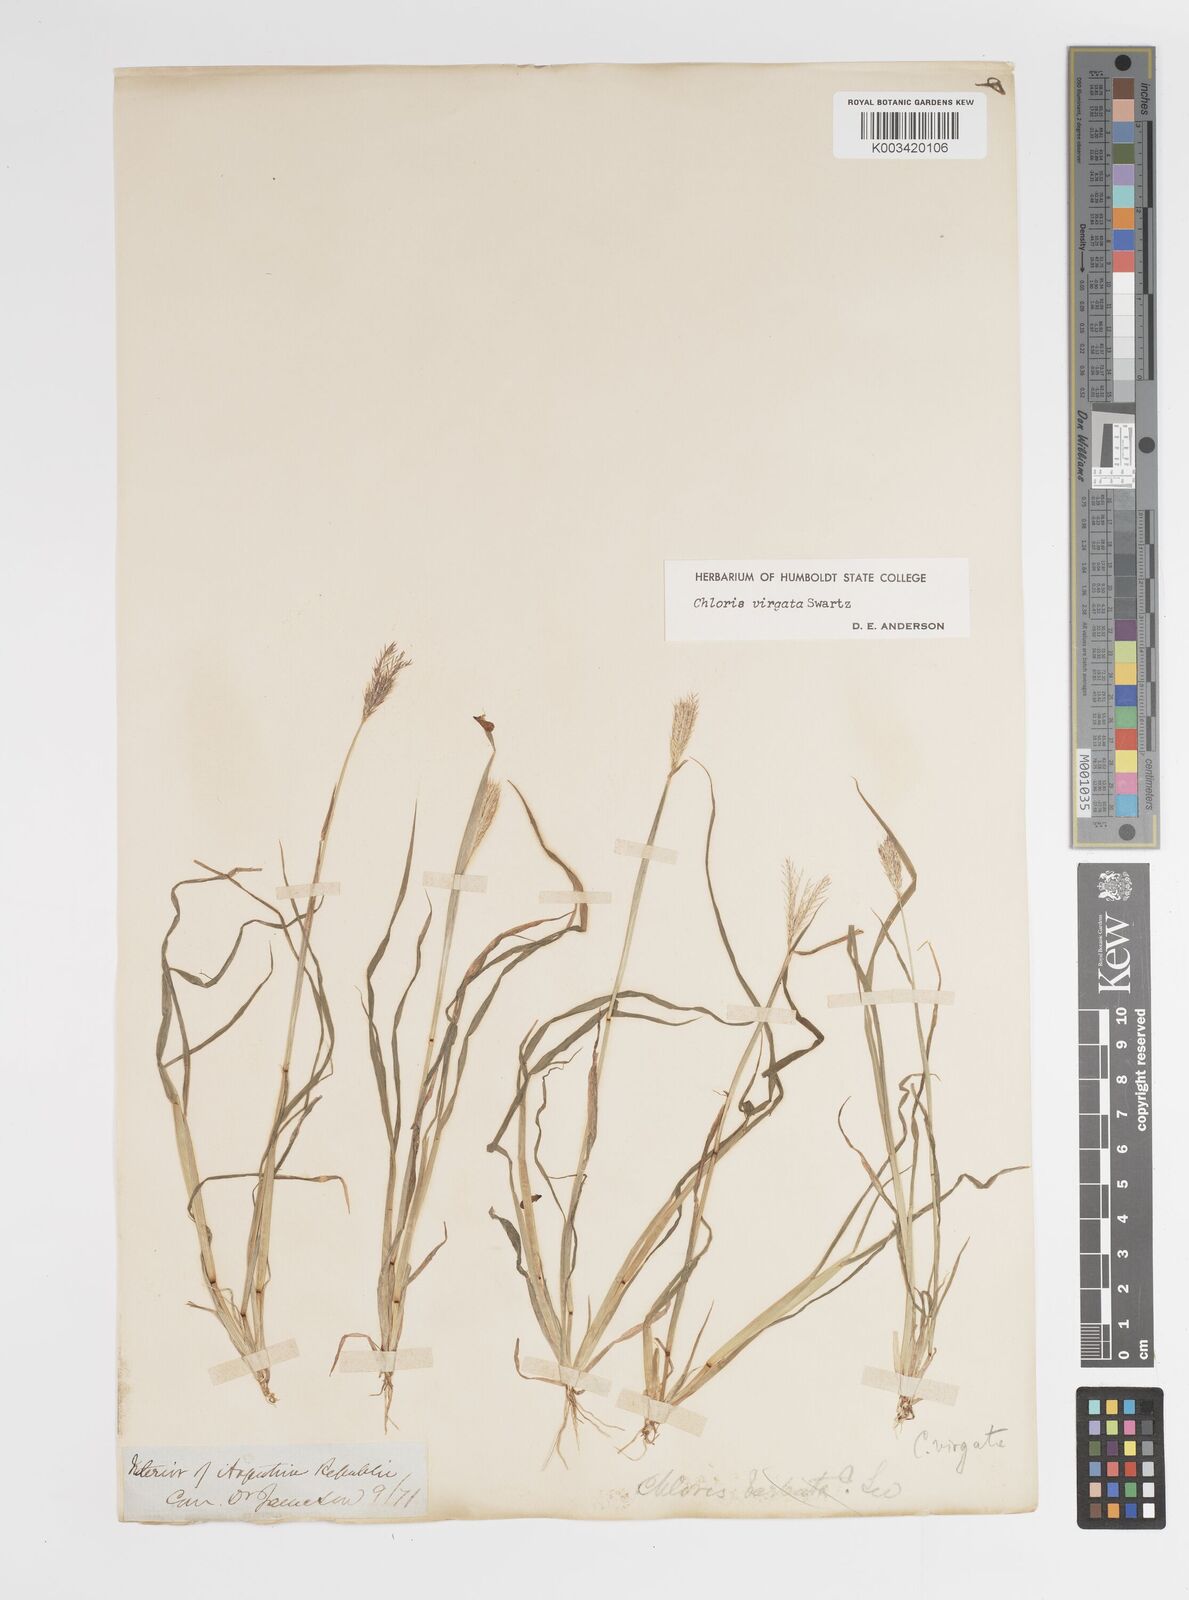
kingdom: Plantae
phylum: Tracheophyta
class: Liliopsida
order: Poales
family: Poaceae
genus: Chloris
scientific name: Chloris virgata
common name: Feathery rhodes-grass
